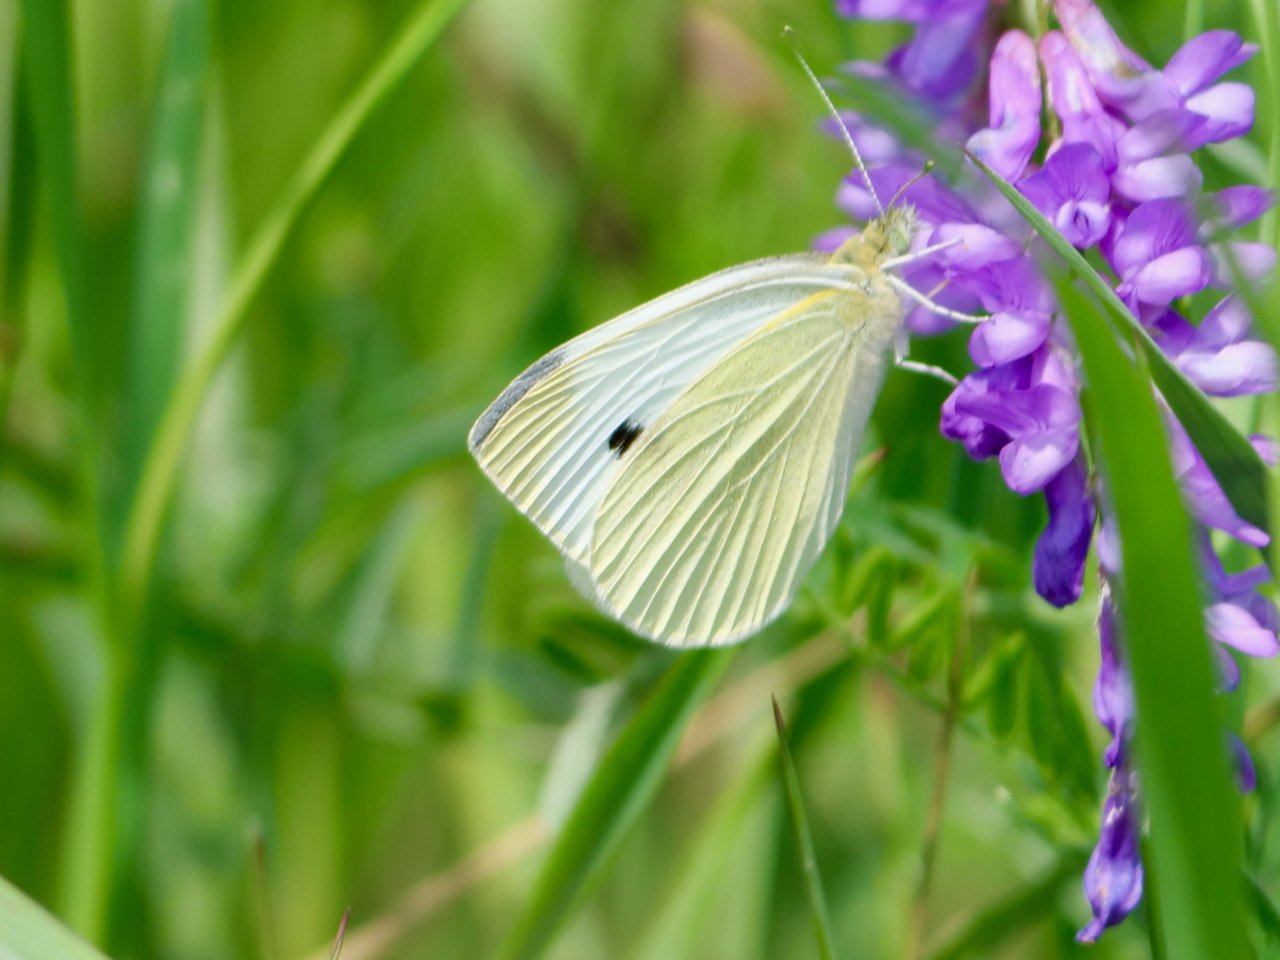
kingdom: Animalia
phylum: Arthropoda
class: Insecta
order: Lepidoptera
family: Pieridae
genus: Pieris
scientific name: Pieris rapae
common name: Cabbage White
